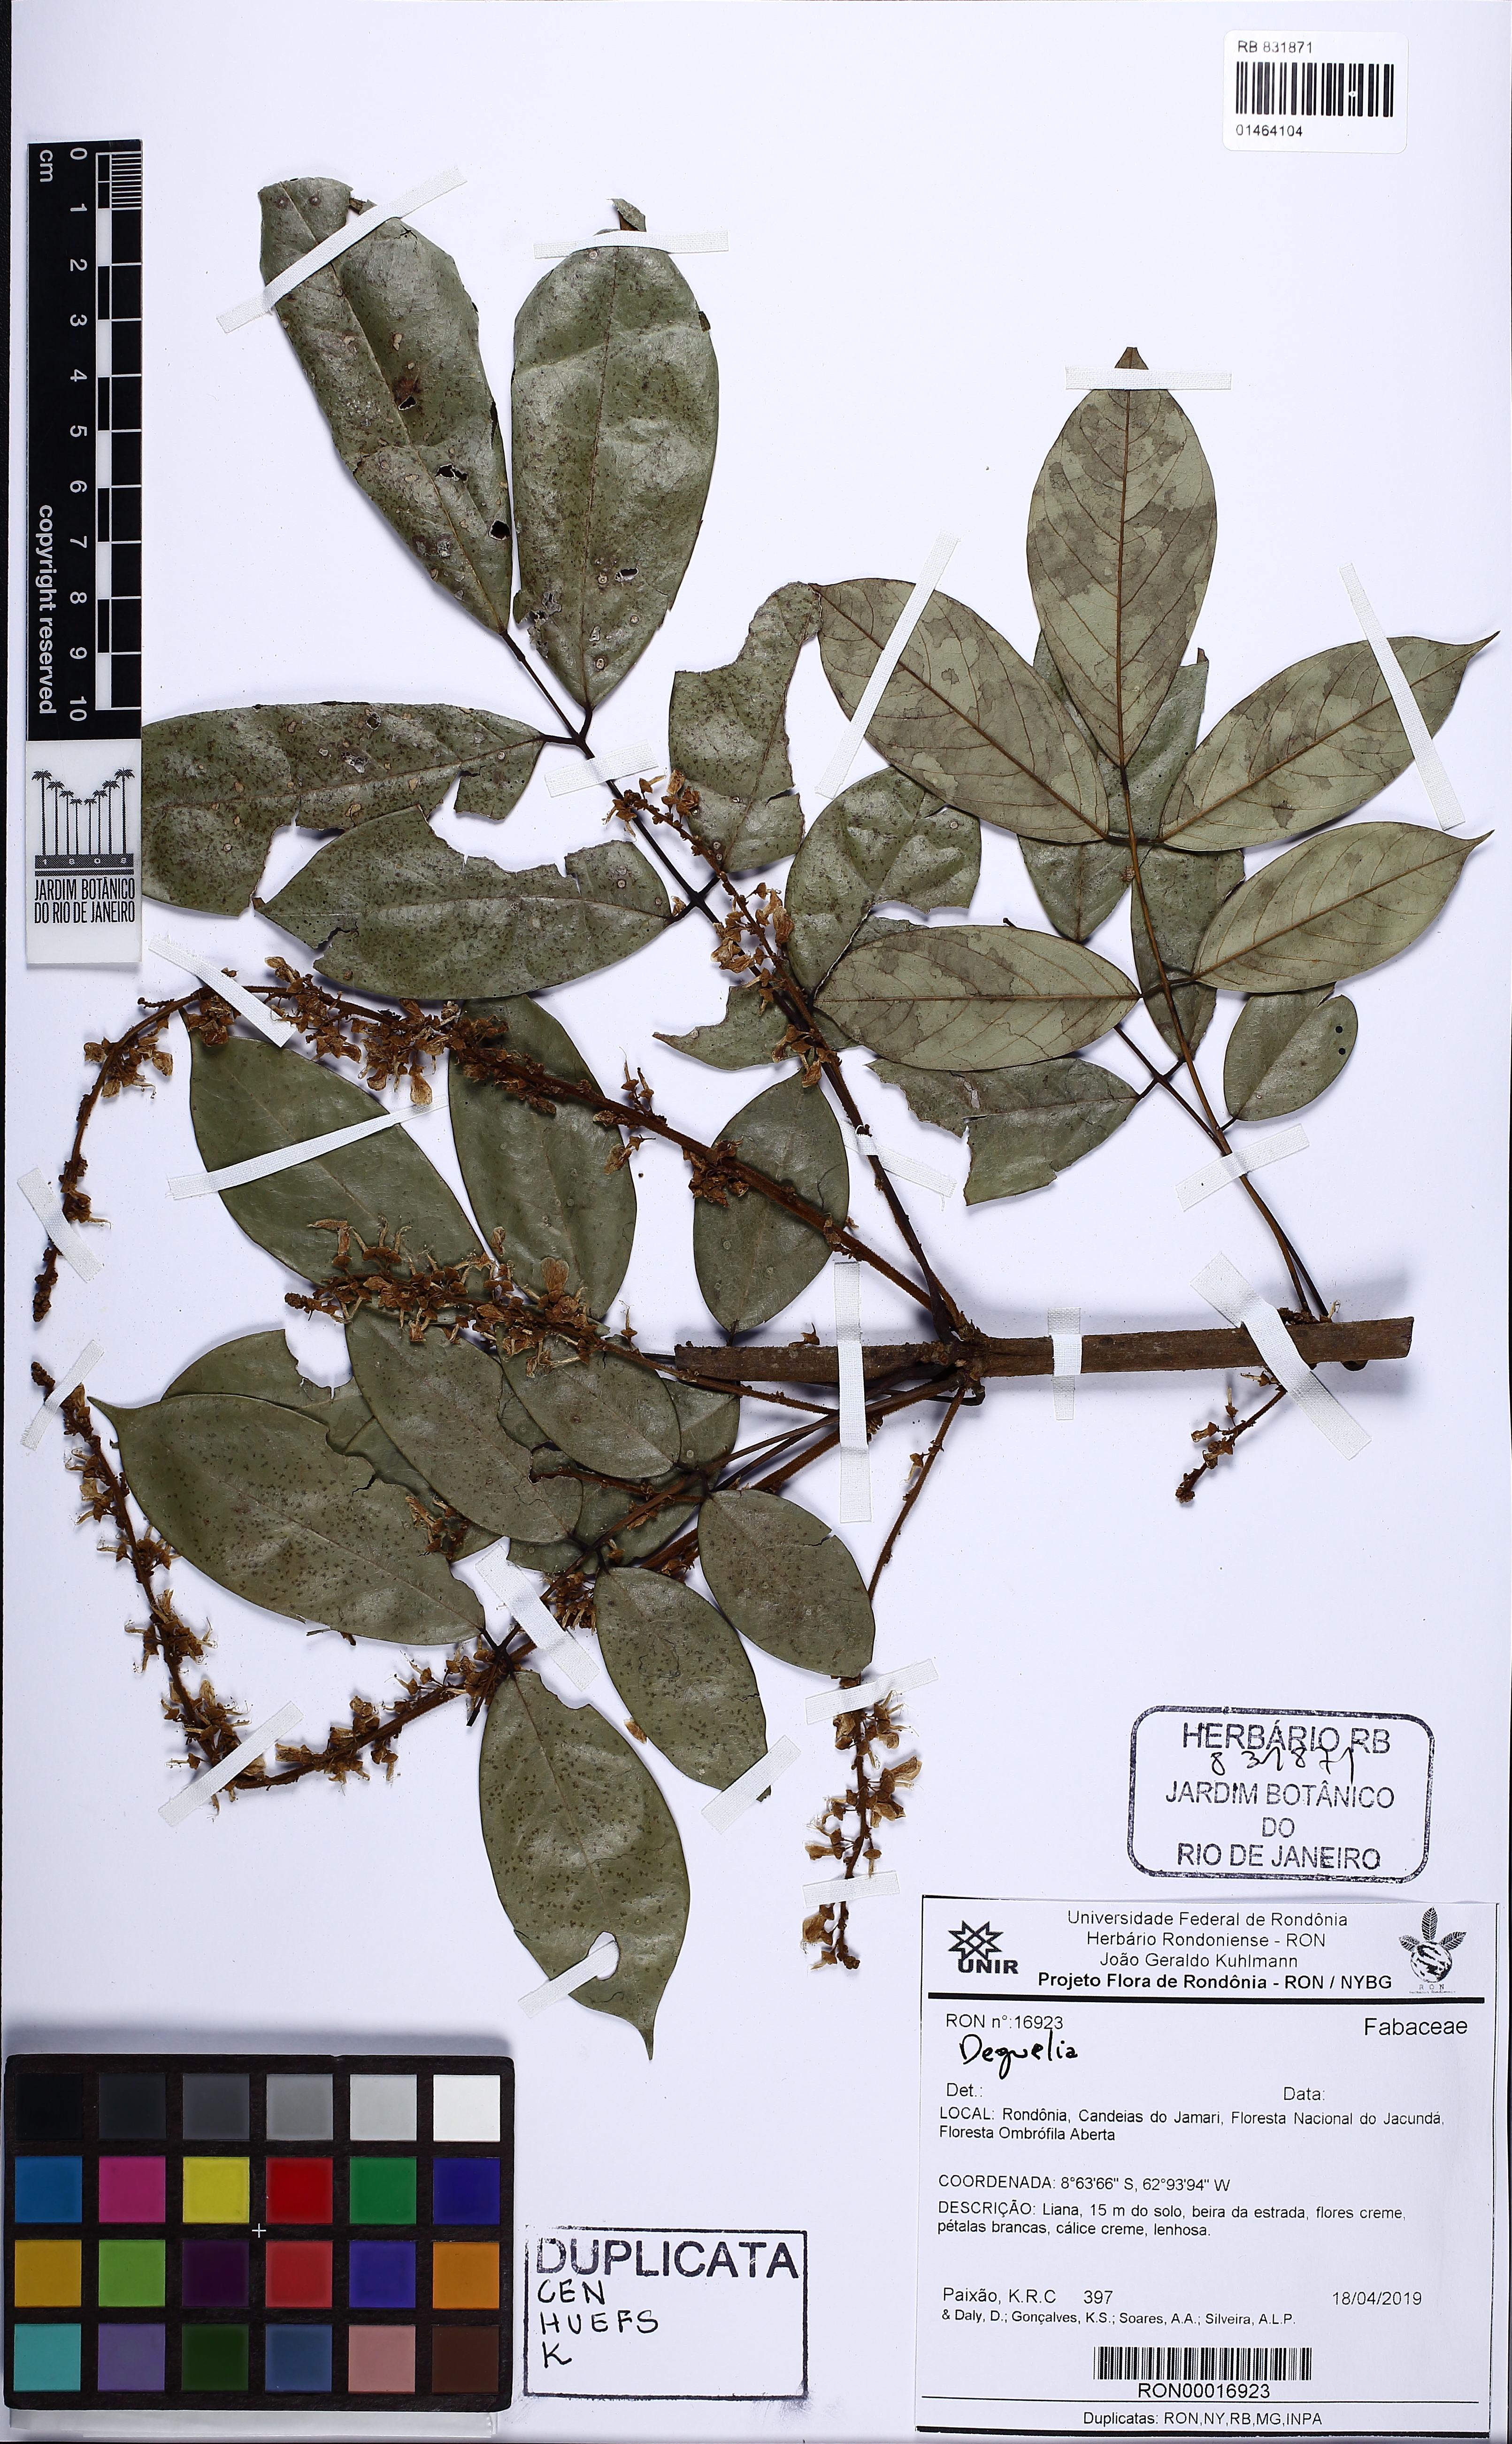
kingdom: Plantae
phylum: Tracheophyta
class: Magnoliopsida
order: Fabales
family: Fabaceae
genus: Deguelia
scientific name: Deguelia
